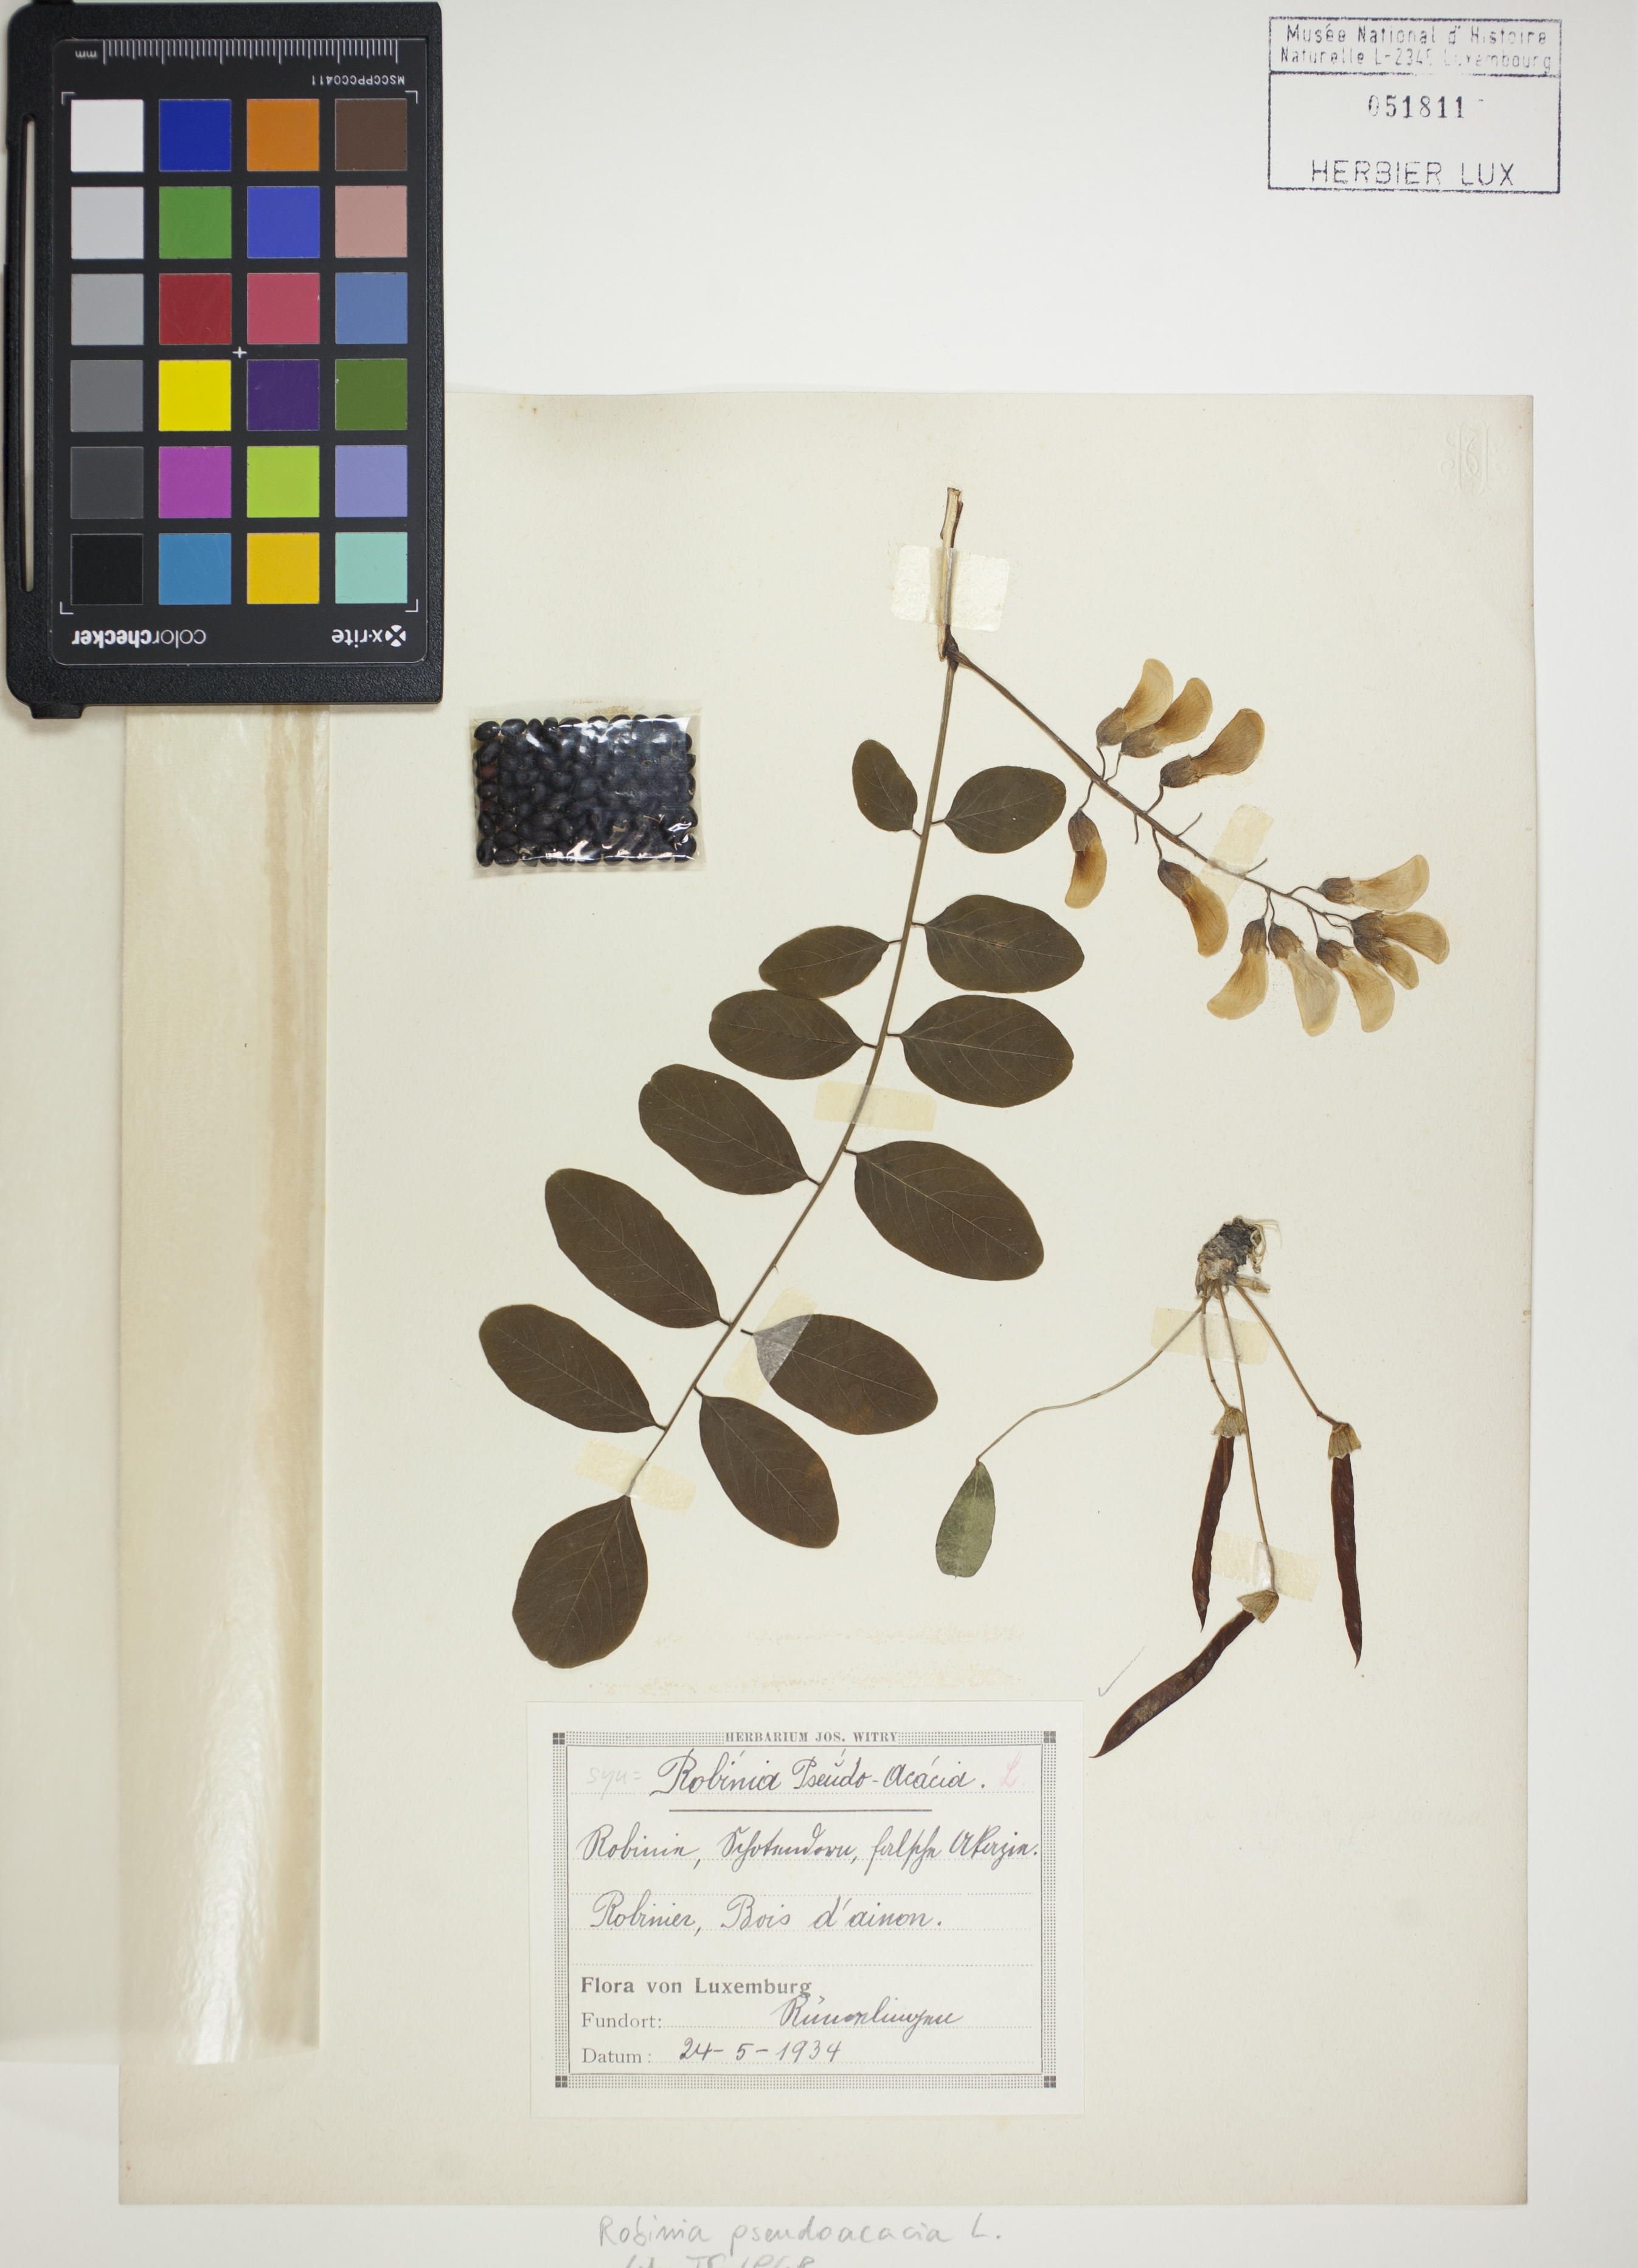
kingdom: Plantae
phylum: Tracheophyta
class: Magnoliopsida
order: Fabales
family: Fabaceae
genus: Robinia
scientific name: Robinia pseudoacacia
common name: Black locust
